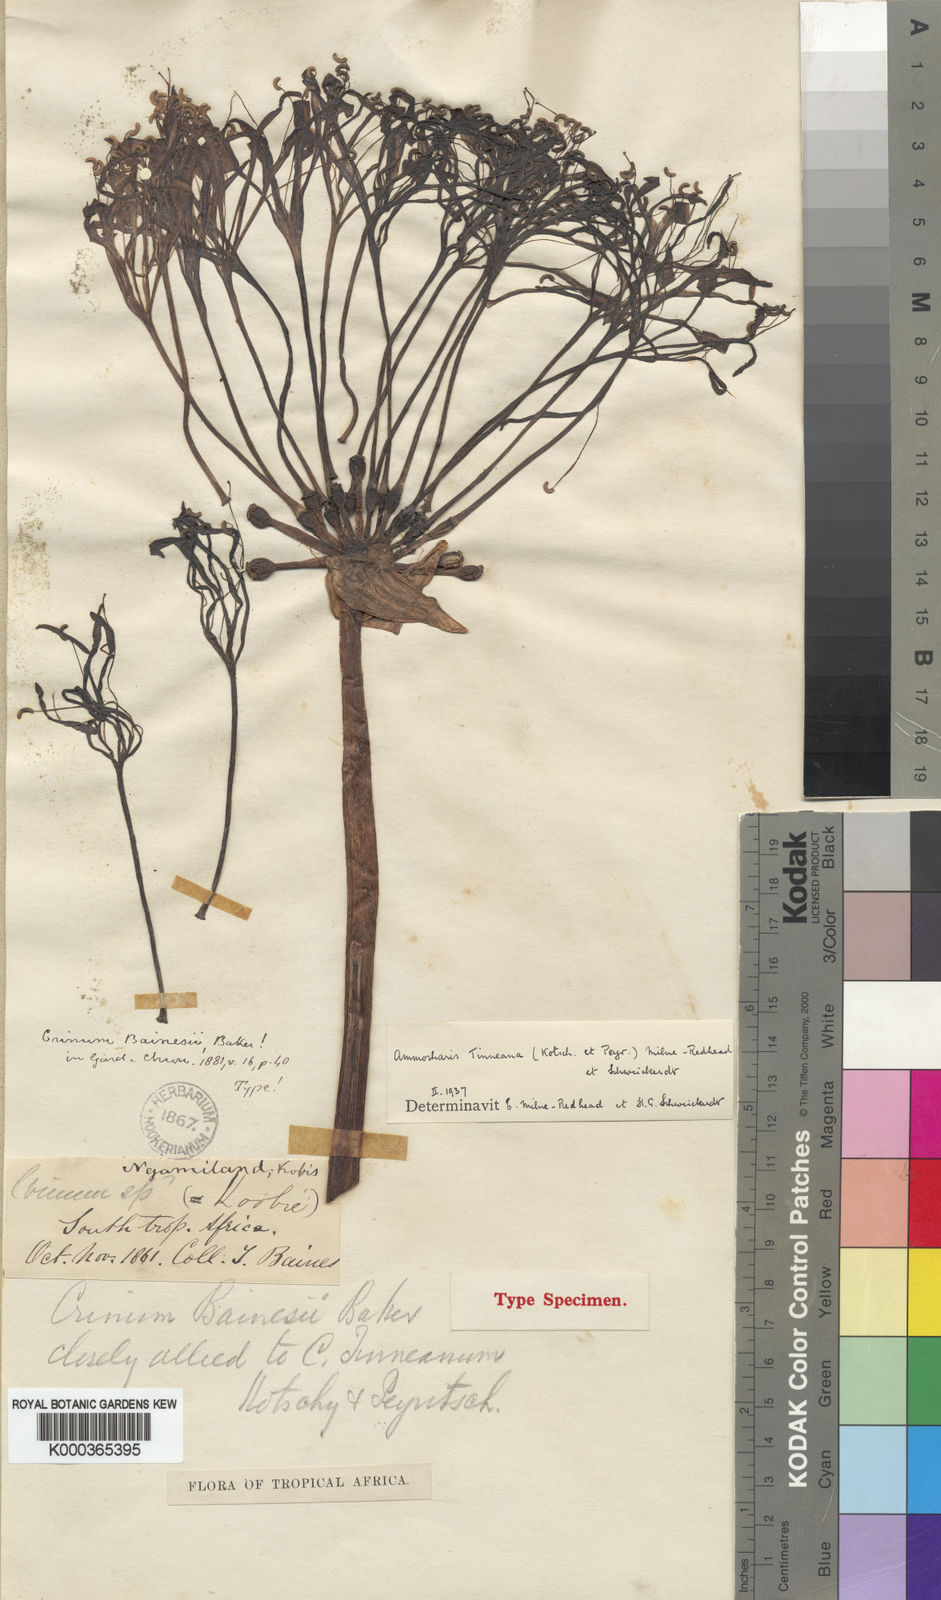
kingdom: Plantae
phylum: Tracheophyta
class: Liliopsida
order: Asparagales
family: Amaryllidaceae
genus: Ammocharis
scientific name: Ammocharis tinneana
